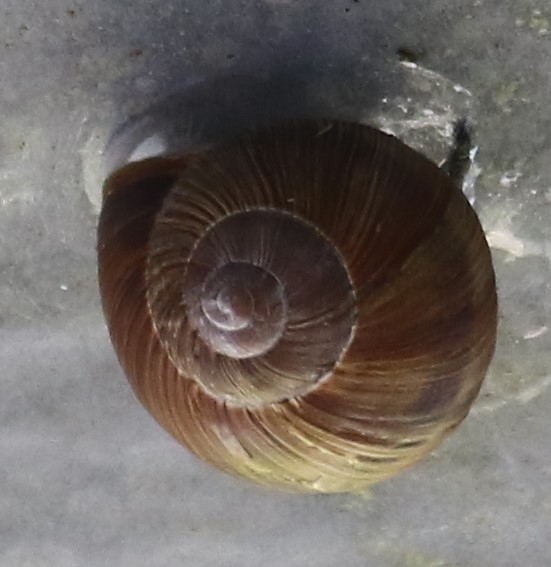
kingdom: Animalia
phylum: Mollusca
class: Gastropoda
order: Stylommatophora
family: Helicidae
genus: Helix
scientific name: Helix pomatia
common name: Vinbjergsnegl
